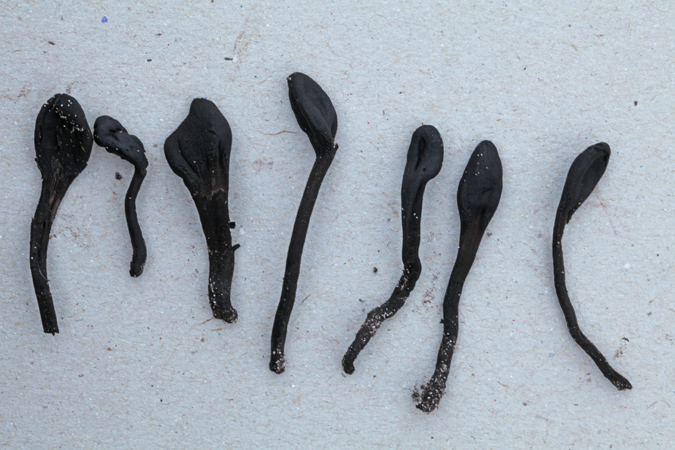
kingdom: Fungi
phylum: Ascomycota
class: Geoglossomycetes
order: Geoglossales
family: Geoglossaceae
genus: Trichoglossum
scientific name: Trichoglossum hirsutum
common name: håret jordtunge
